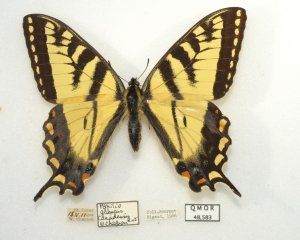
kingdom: Animalia
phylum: Arthropoda
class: Insecta
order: Lepidoptera
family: Papilionidae
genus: Pterourus
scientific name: Pterourus canadensis
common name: Canadian Tiger Swallowtail
